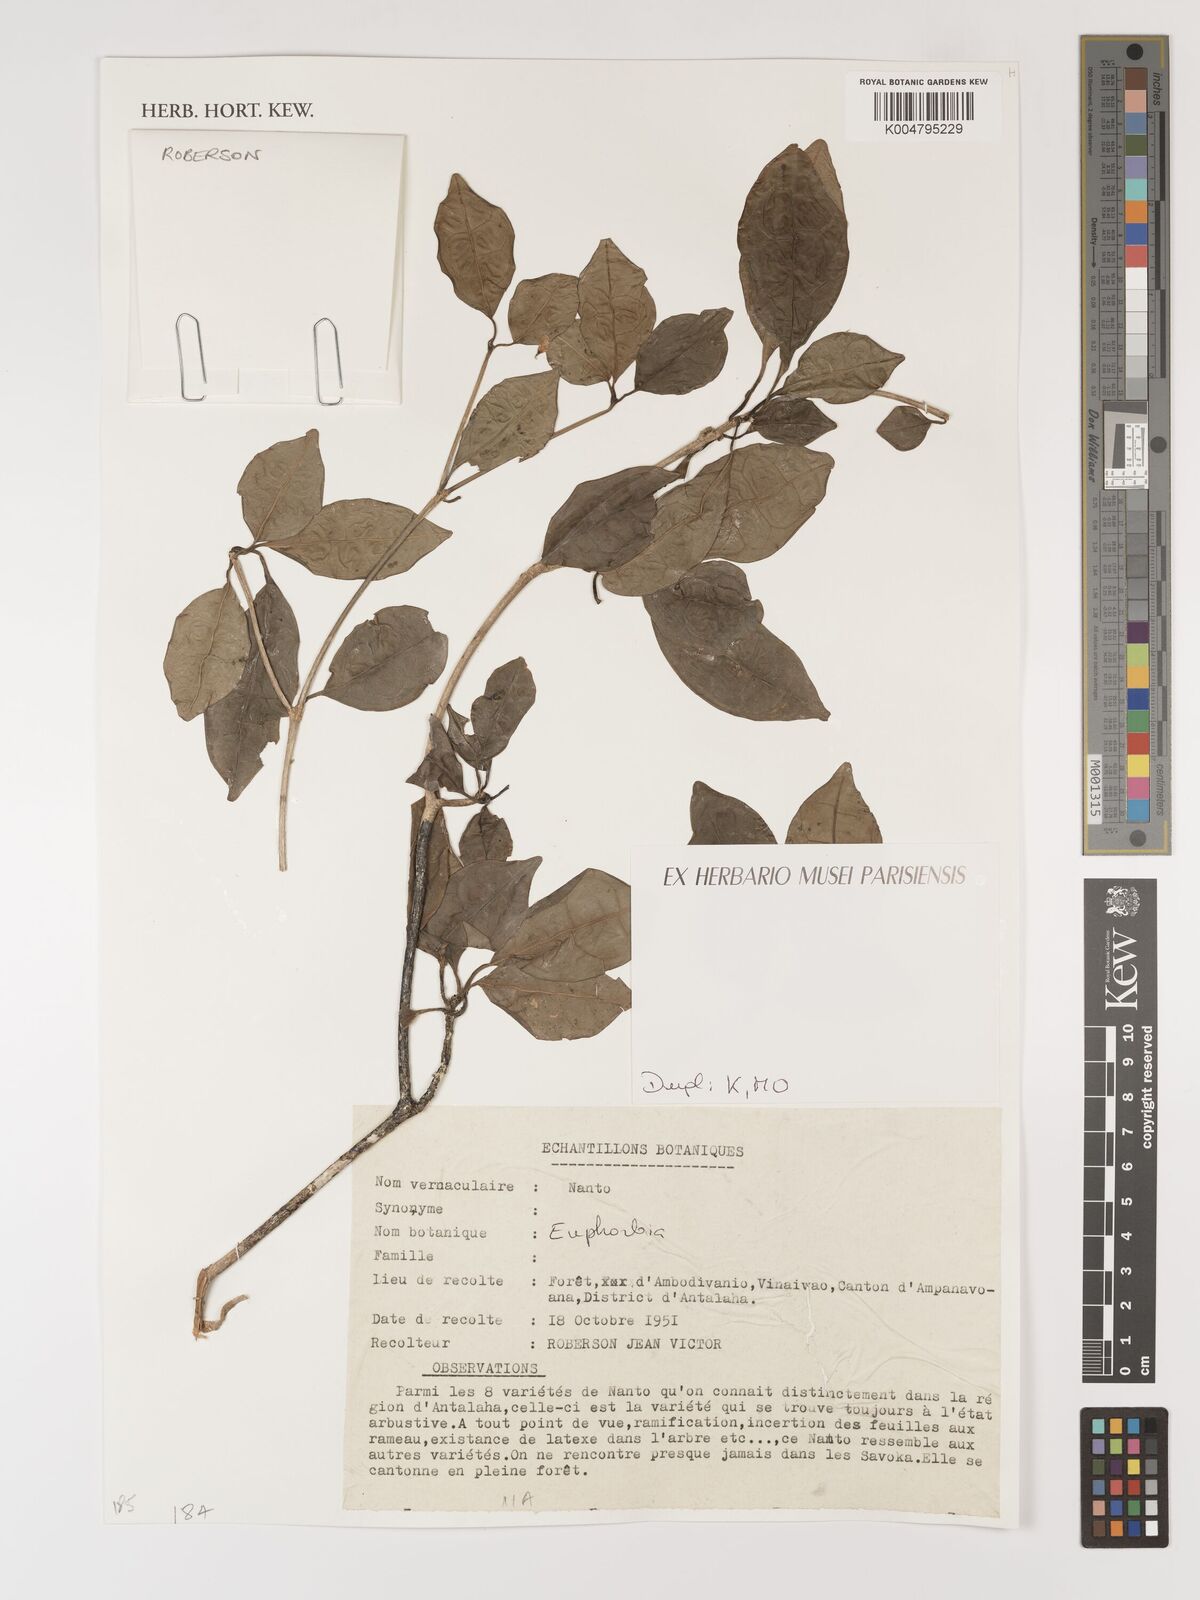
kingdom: Plantae
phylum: Tracheophyta
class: Magnoliopsida
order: Malpighiales
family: Euphorbiaceae
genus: Euphorbia
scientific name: Euphorbia
